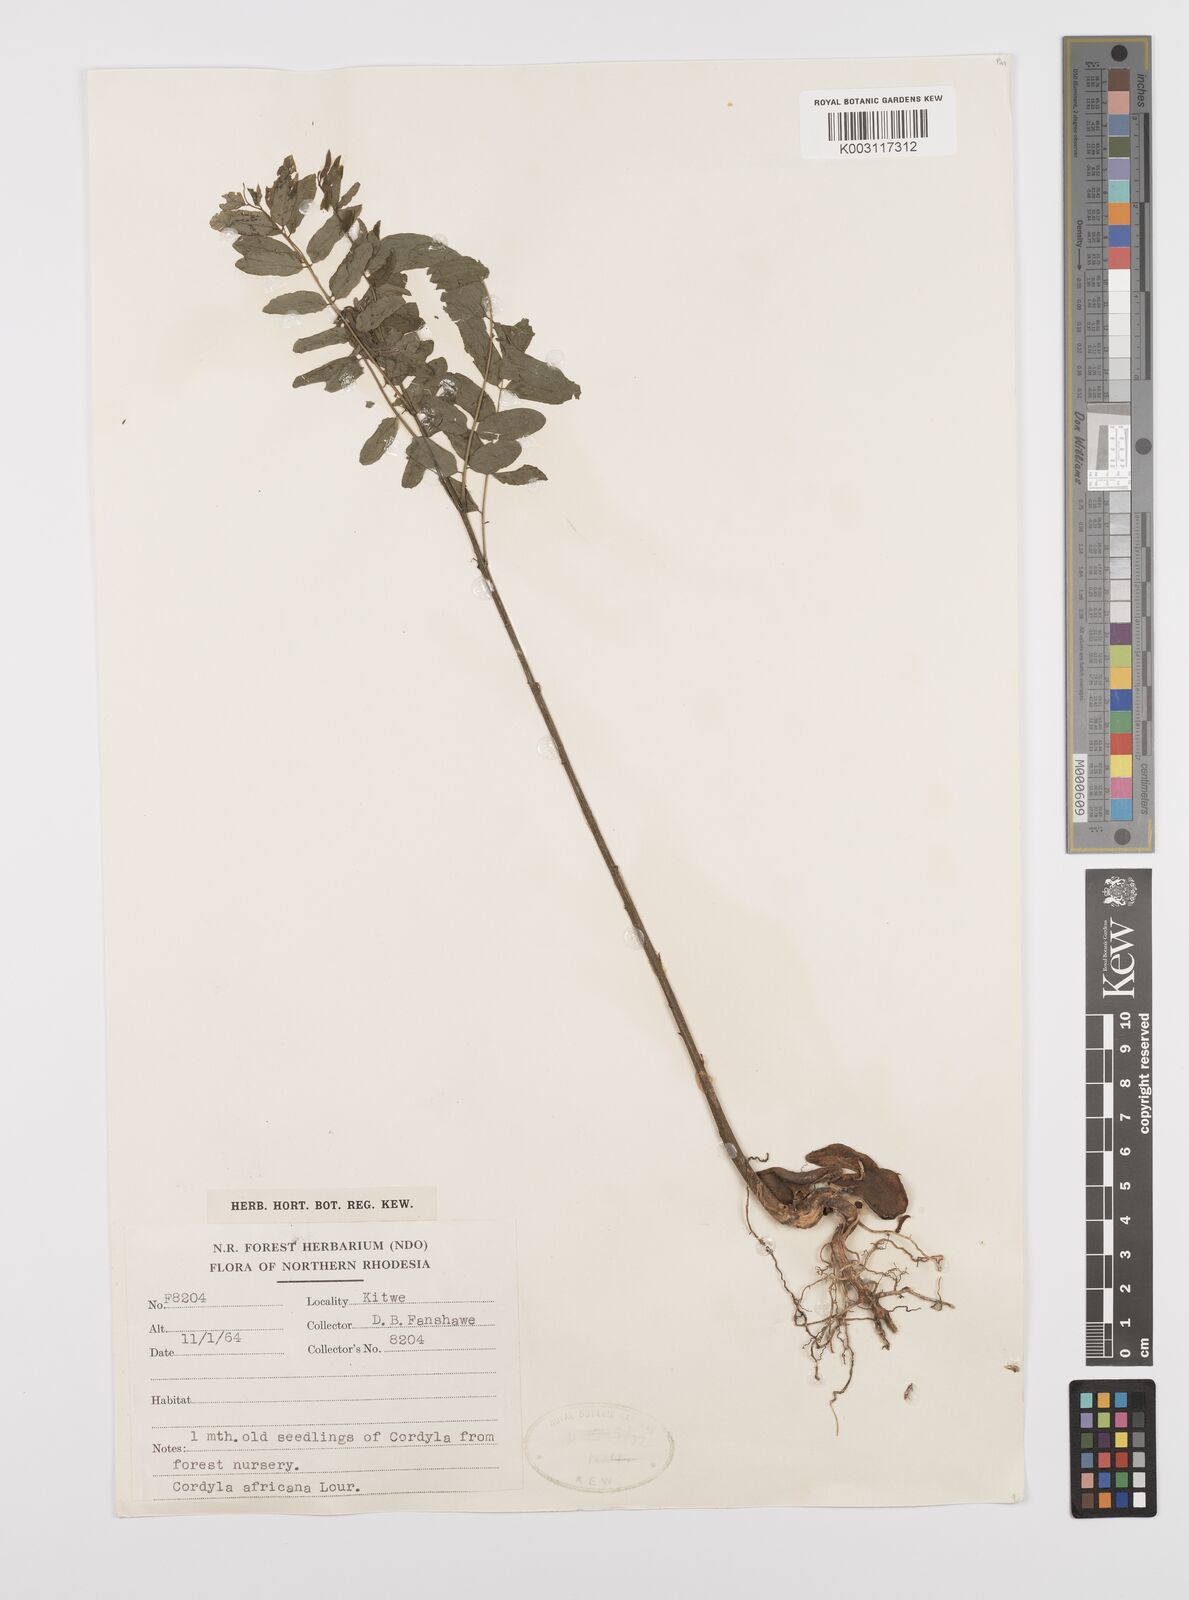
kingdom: Plantae
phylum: Tracheophyta
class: Magnoliopsida
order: Fabales
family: Fabaceae
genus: Cordyla
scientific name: Cordyla africana
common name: Wild mango
